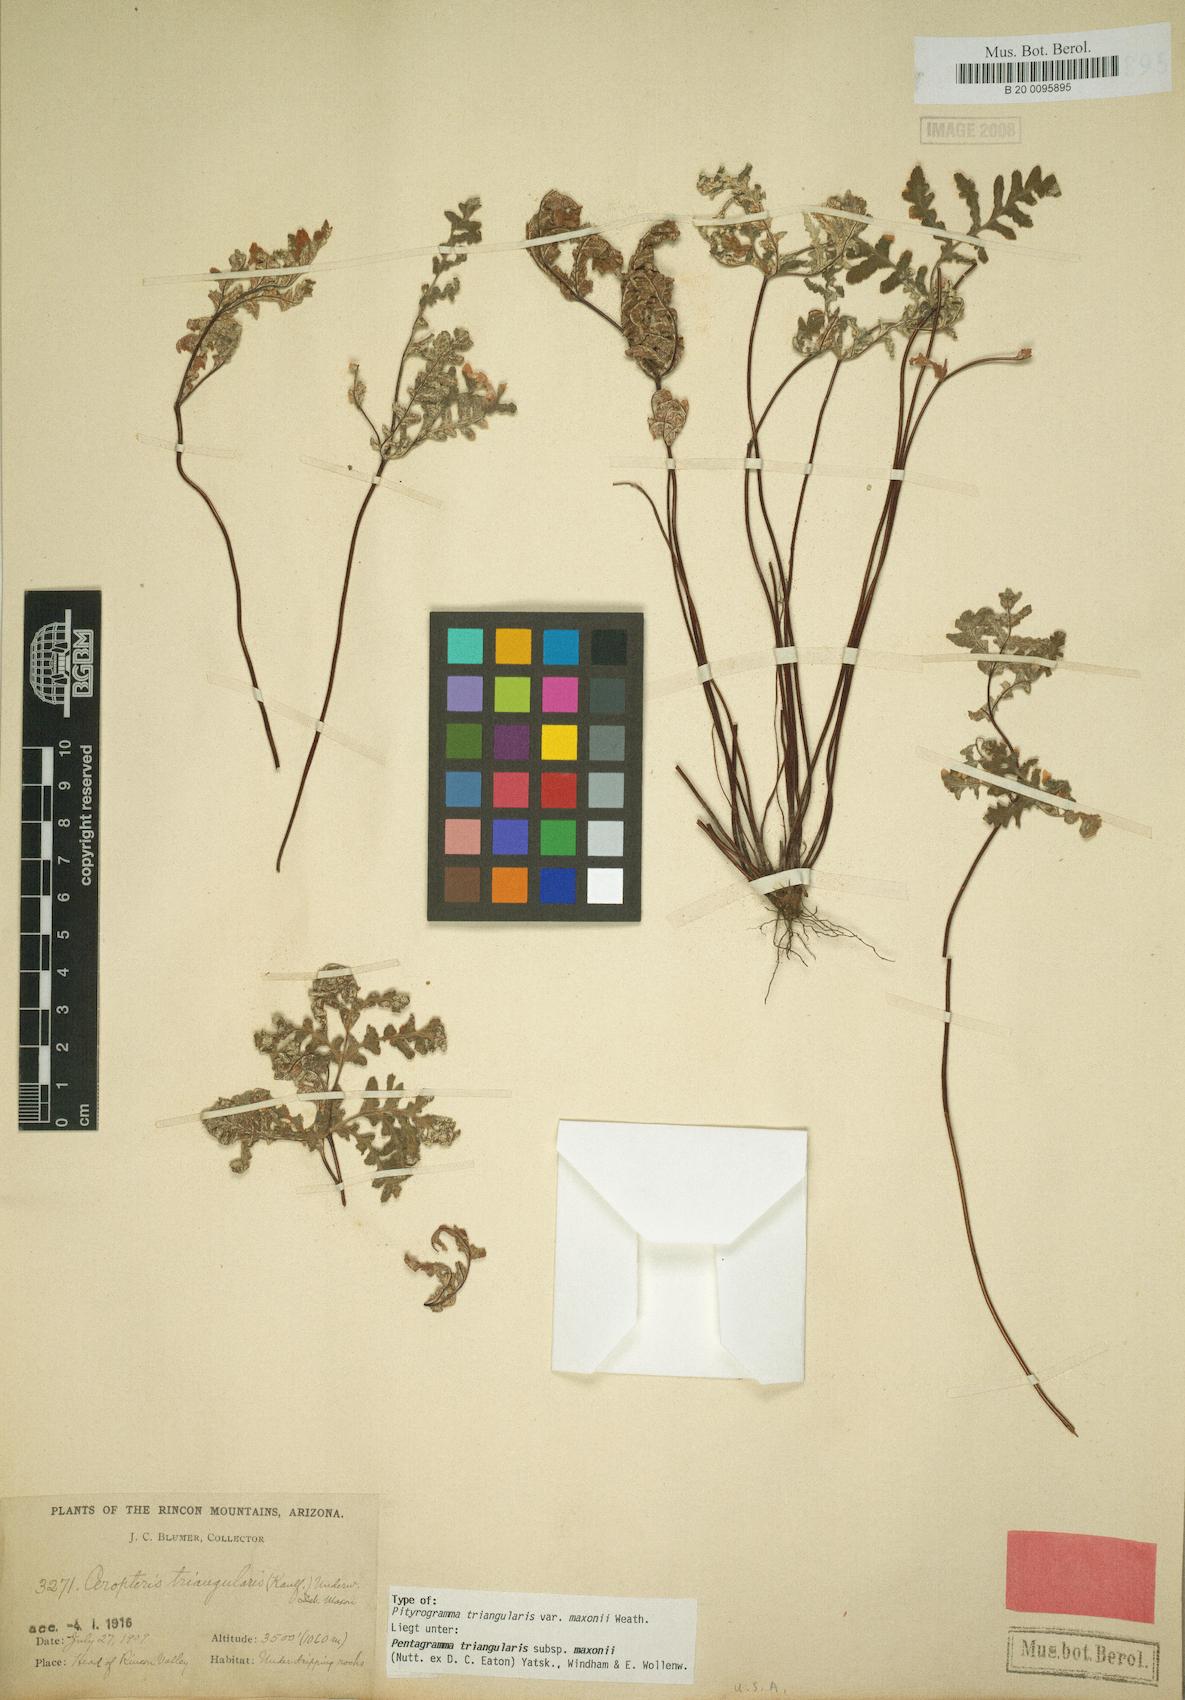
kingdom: Plantae
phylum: Tracheophyta
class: Polypodiopsida
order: Polypodiales
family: Pteridaceae
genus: Pentagramma
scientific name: Pentagramma maxonii
